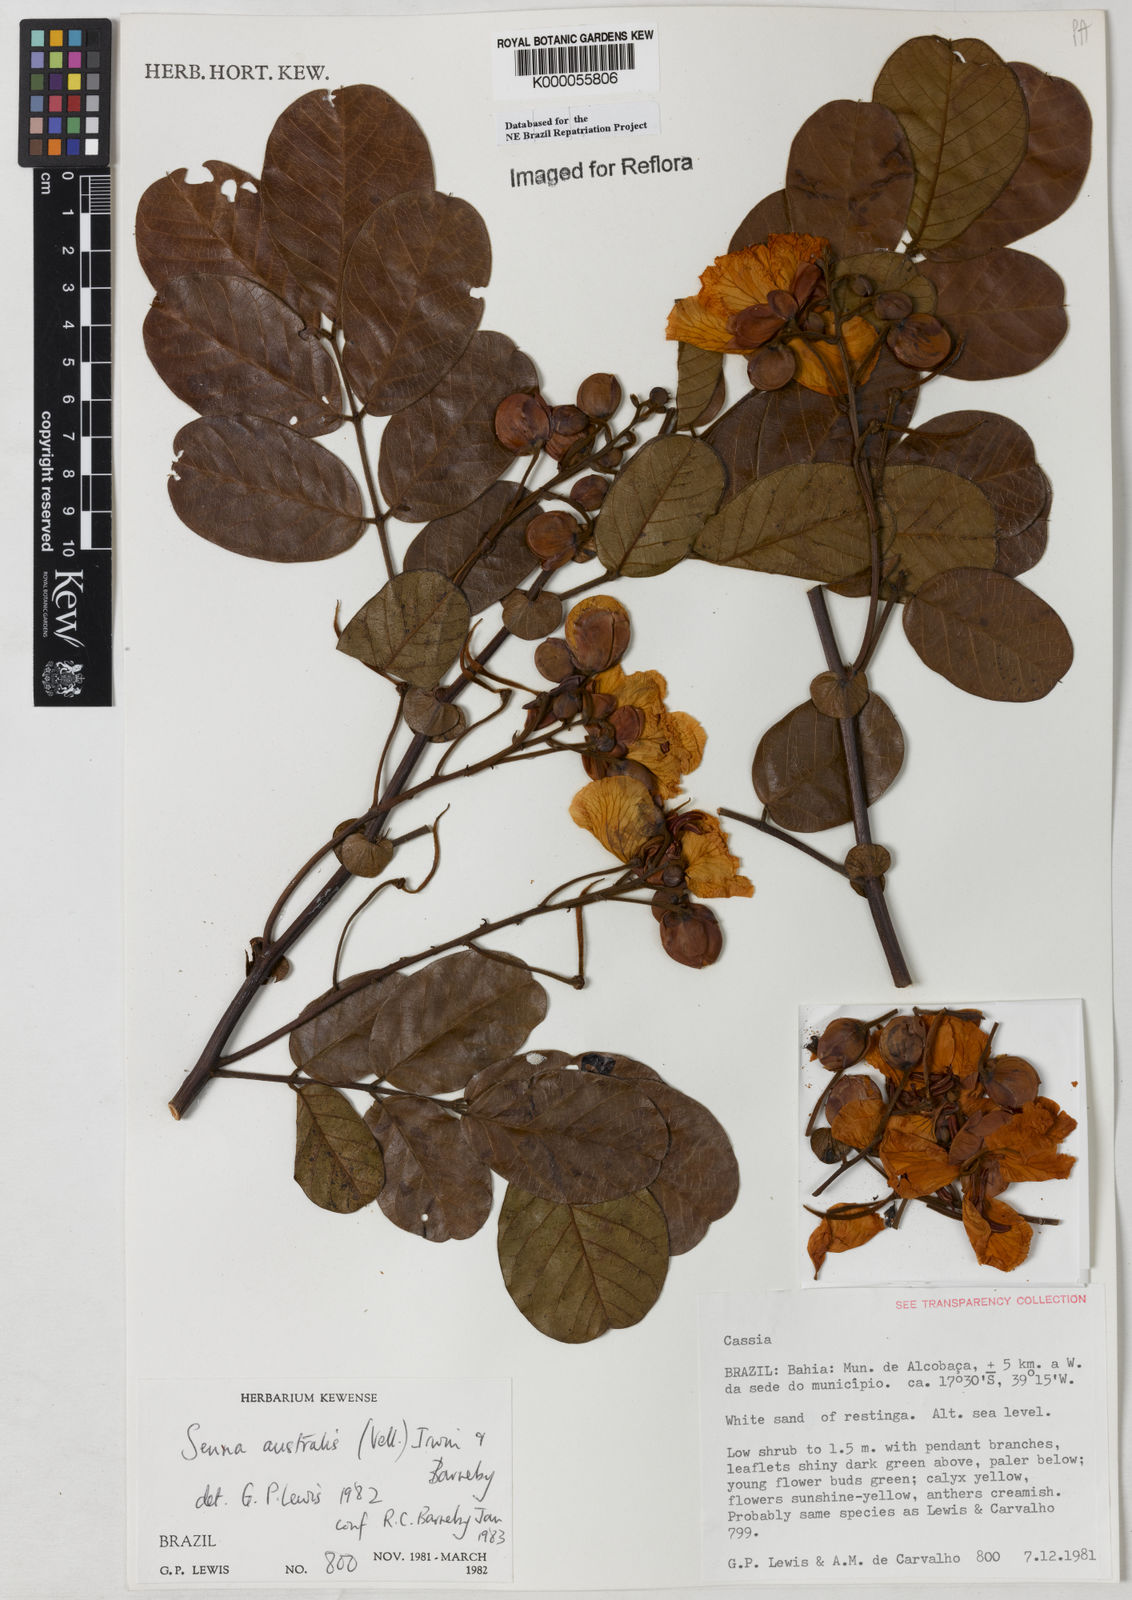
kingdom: Plantae
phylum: Tracheophyta
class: Magnoliopsida
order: Fabales
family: Fabaceae
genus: Senna
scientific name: Senna appendiculata
